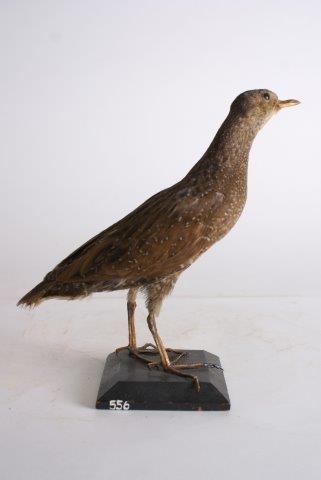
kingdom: Animalia
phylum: Chordata
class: Aves
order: Gruiformes
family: Rallidae
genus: Porzana
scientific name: Porzana porzana
